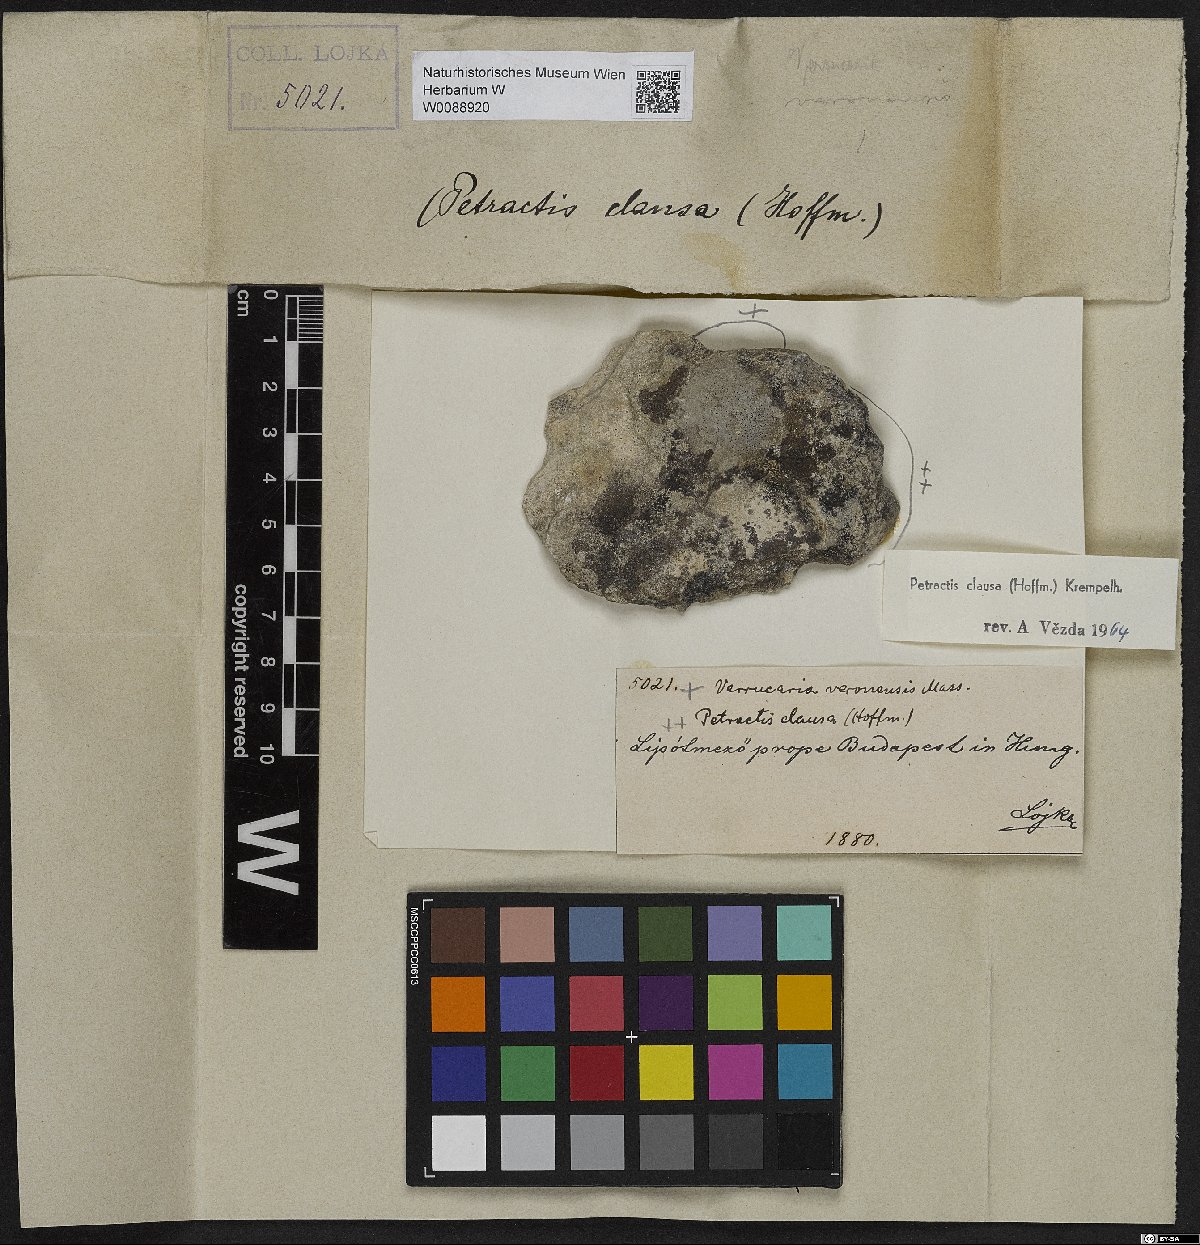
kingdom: Fungi
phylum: Ascomycota
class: Lecanoromycetes
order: Ostropales
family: Stictidaceae
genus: Petractis
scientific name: Petractis clausa
